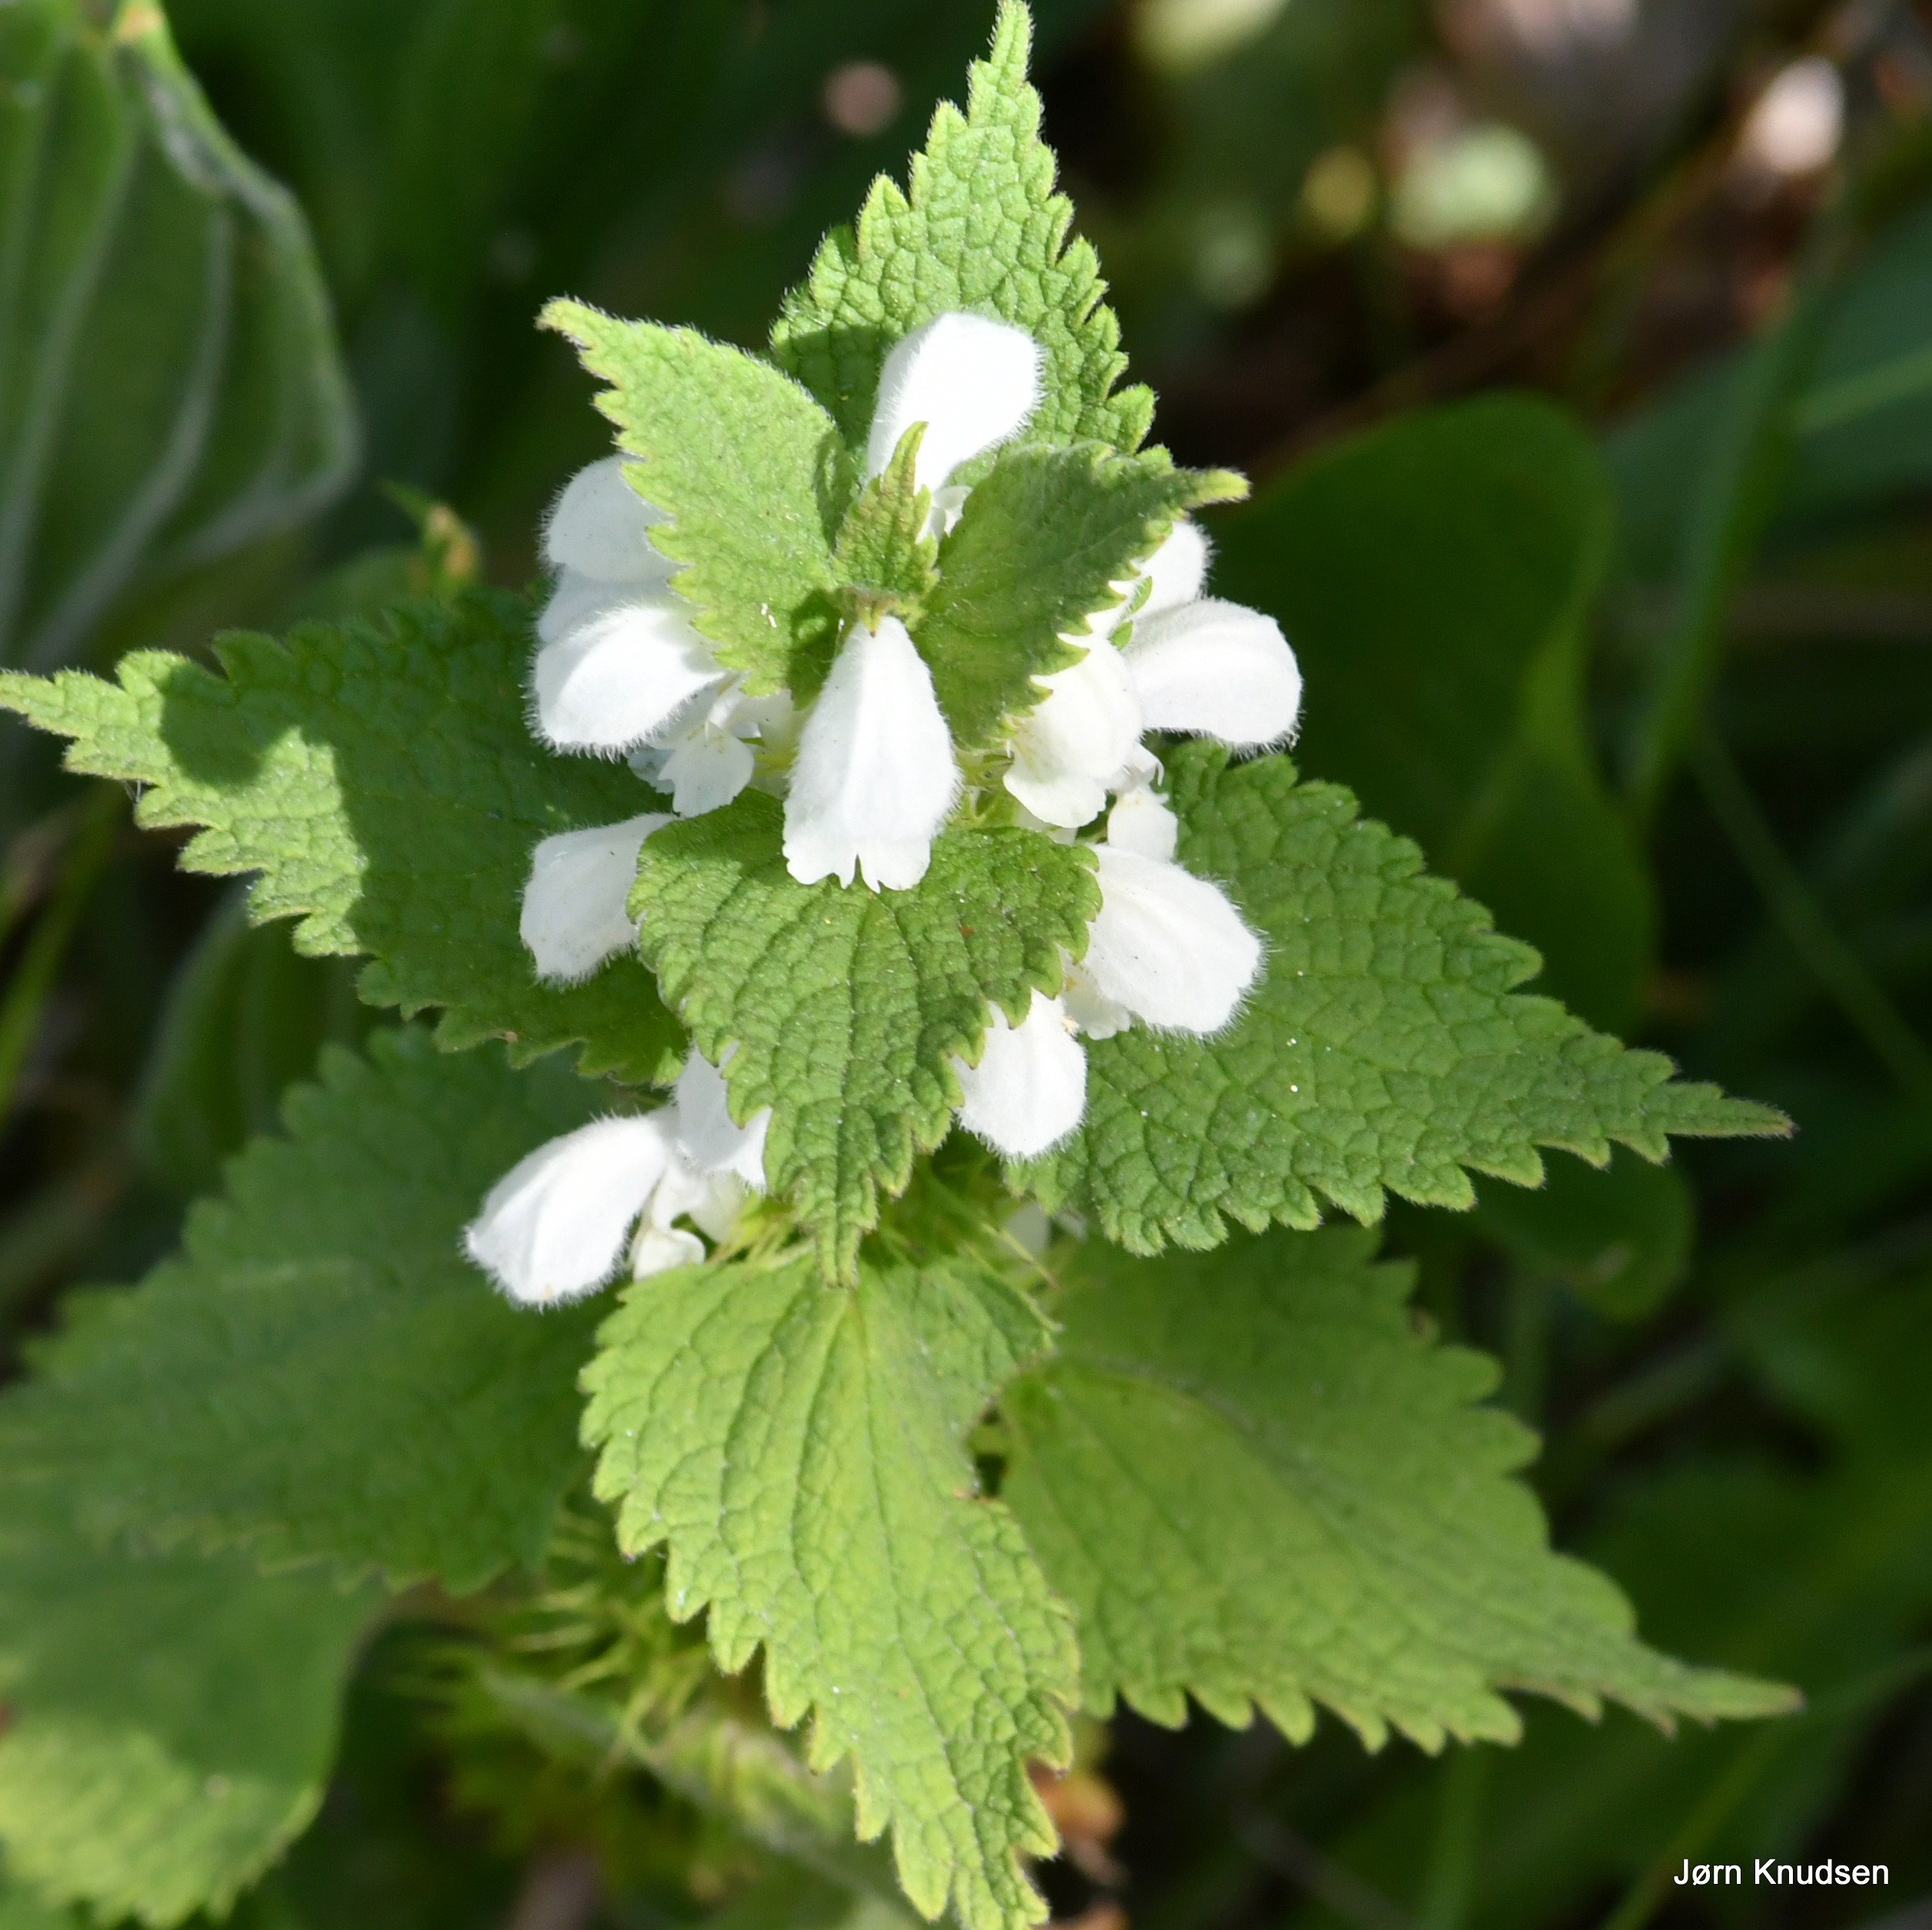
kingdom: Plantae
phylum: Tracheophyta
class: Magnoliopsida
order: Lamiales
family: Lamiaceae
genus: Lamium
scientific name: Lamium album
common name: Døvnælde
